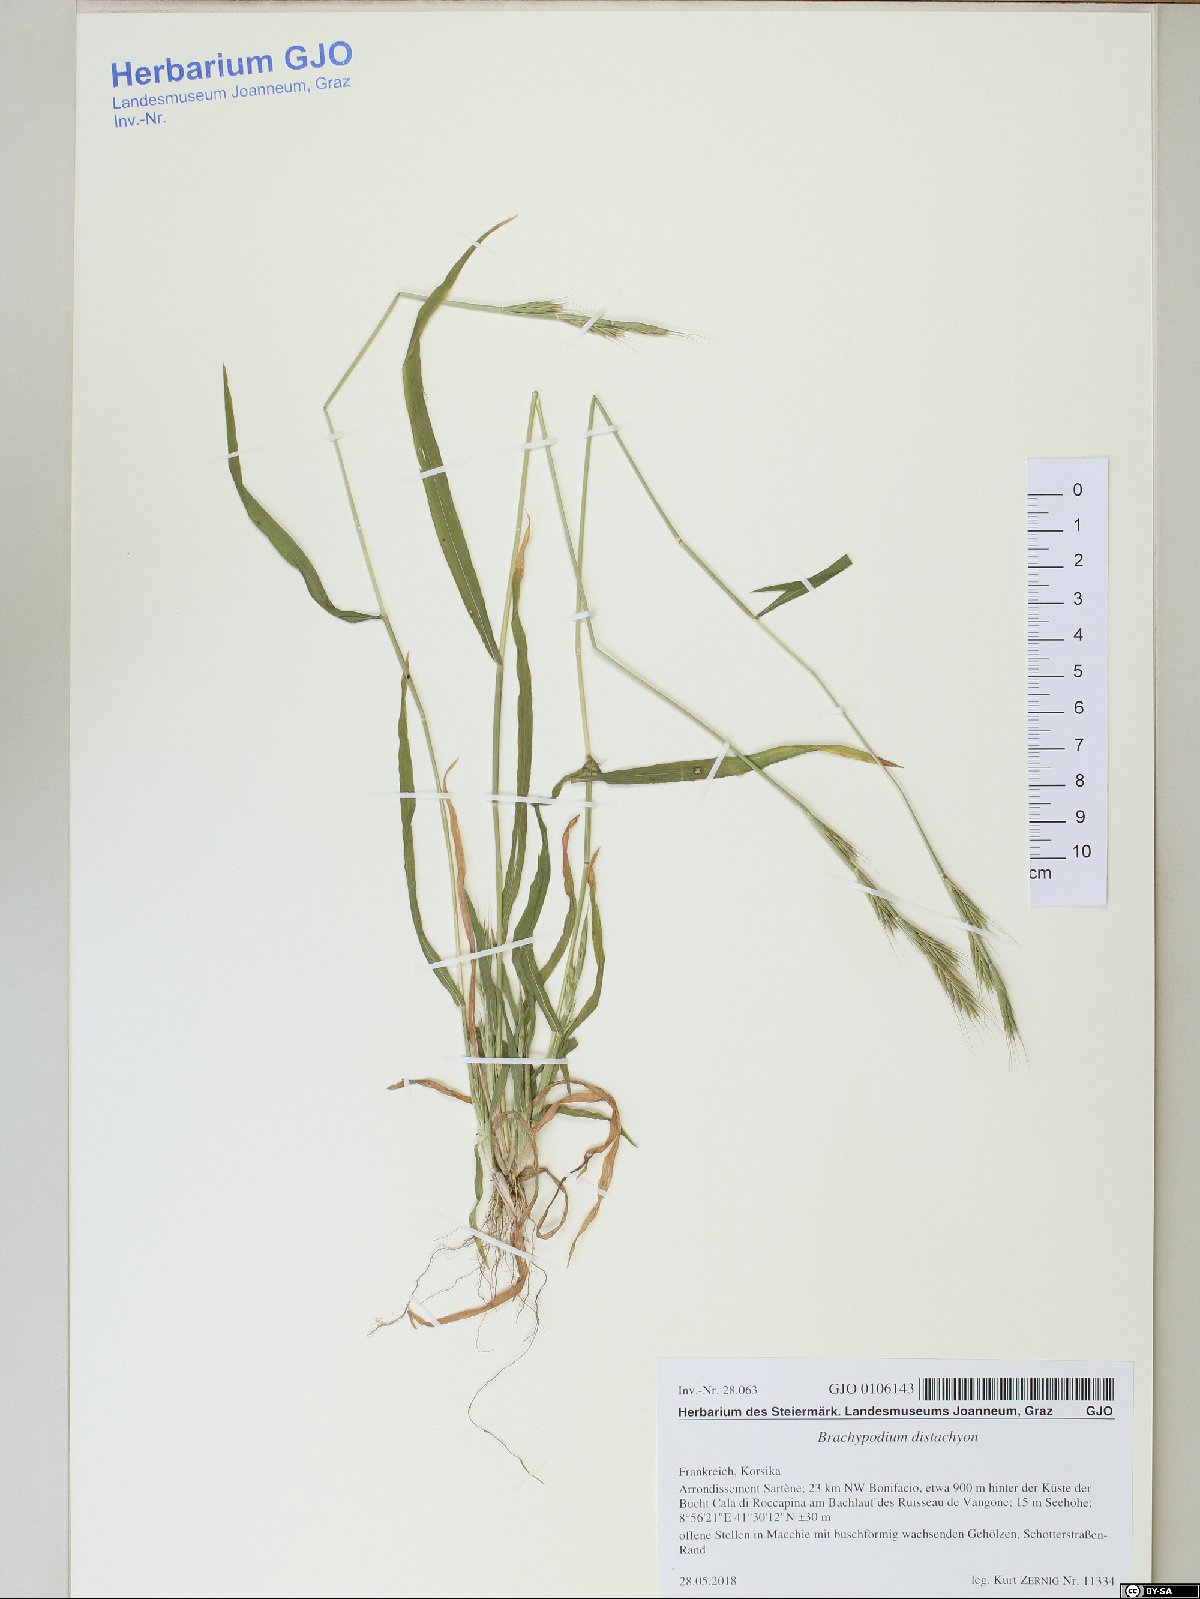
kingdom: Plantae
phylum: Tracheophyta
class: Liliopsida
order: Poales
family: Poaceae
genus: Brachypodium
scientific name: Brachypodium distachyon
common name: Stiff brome
